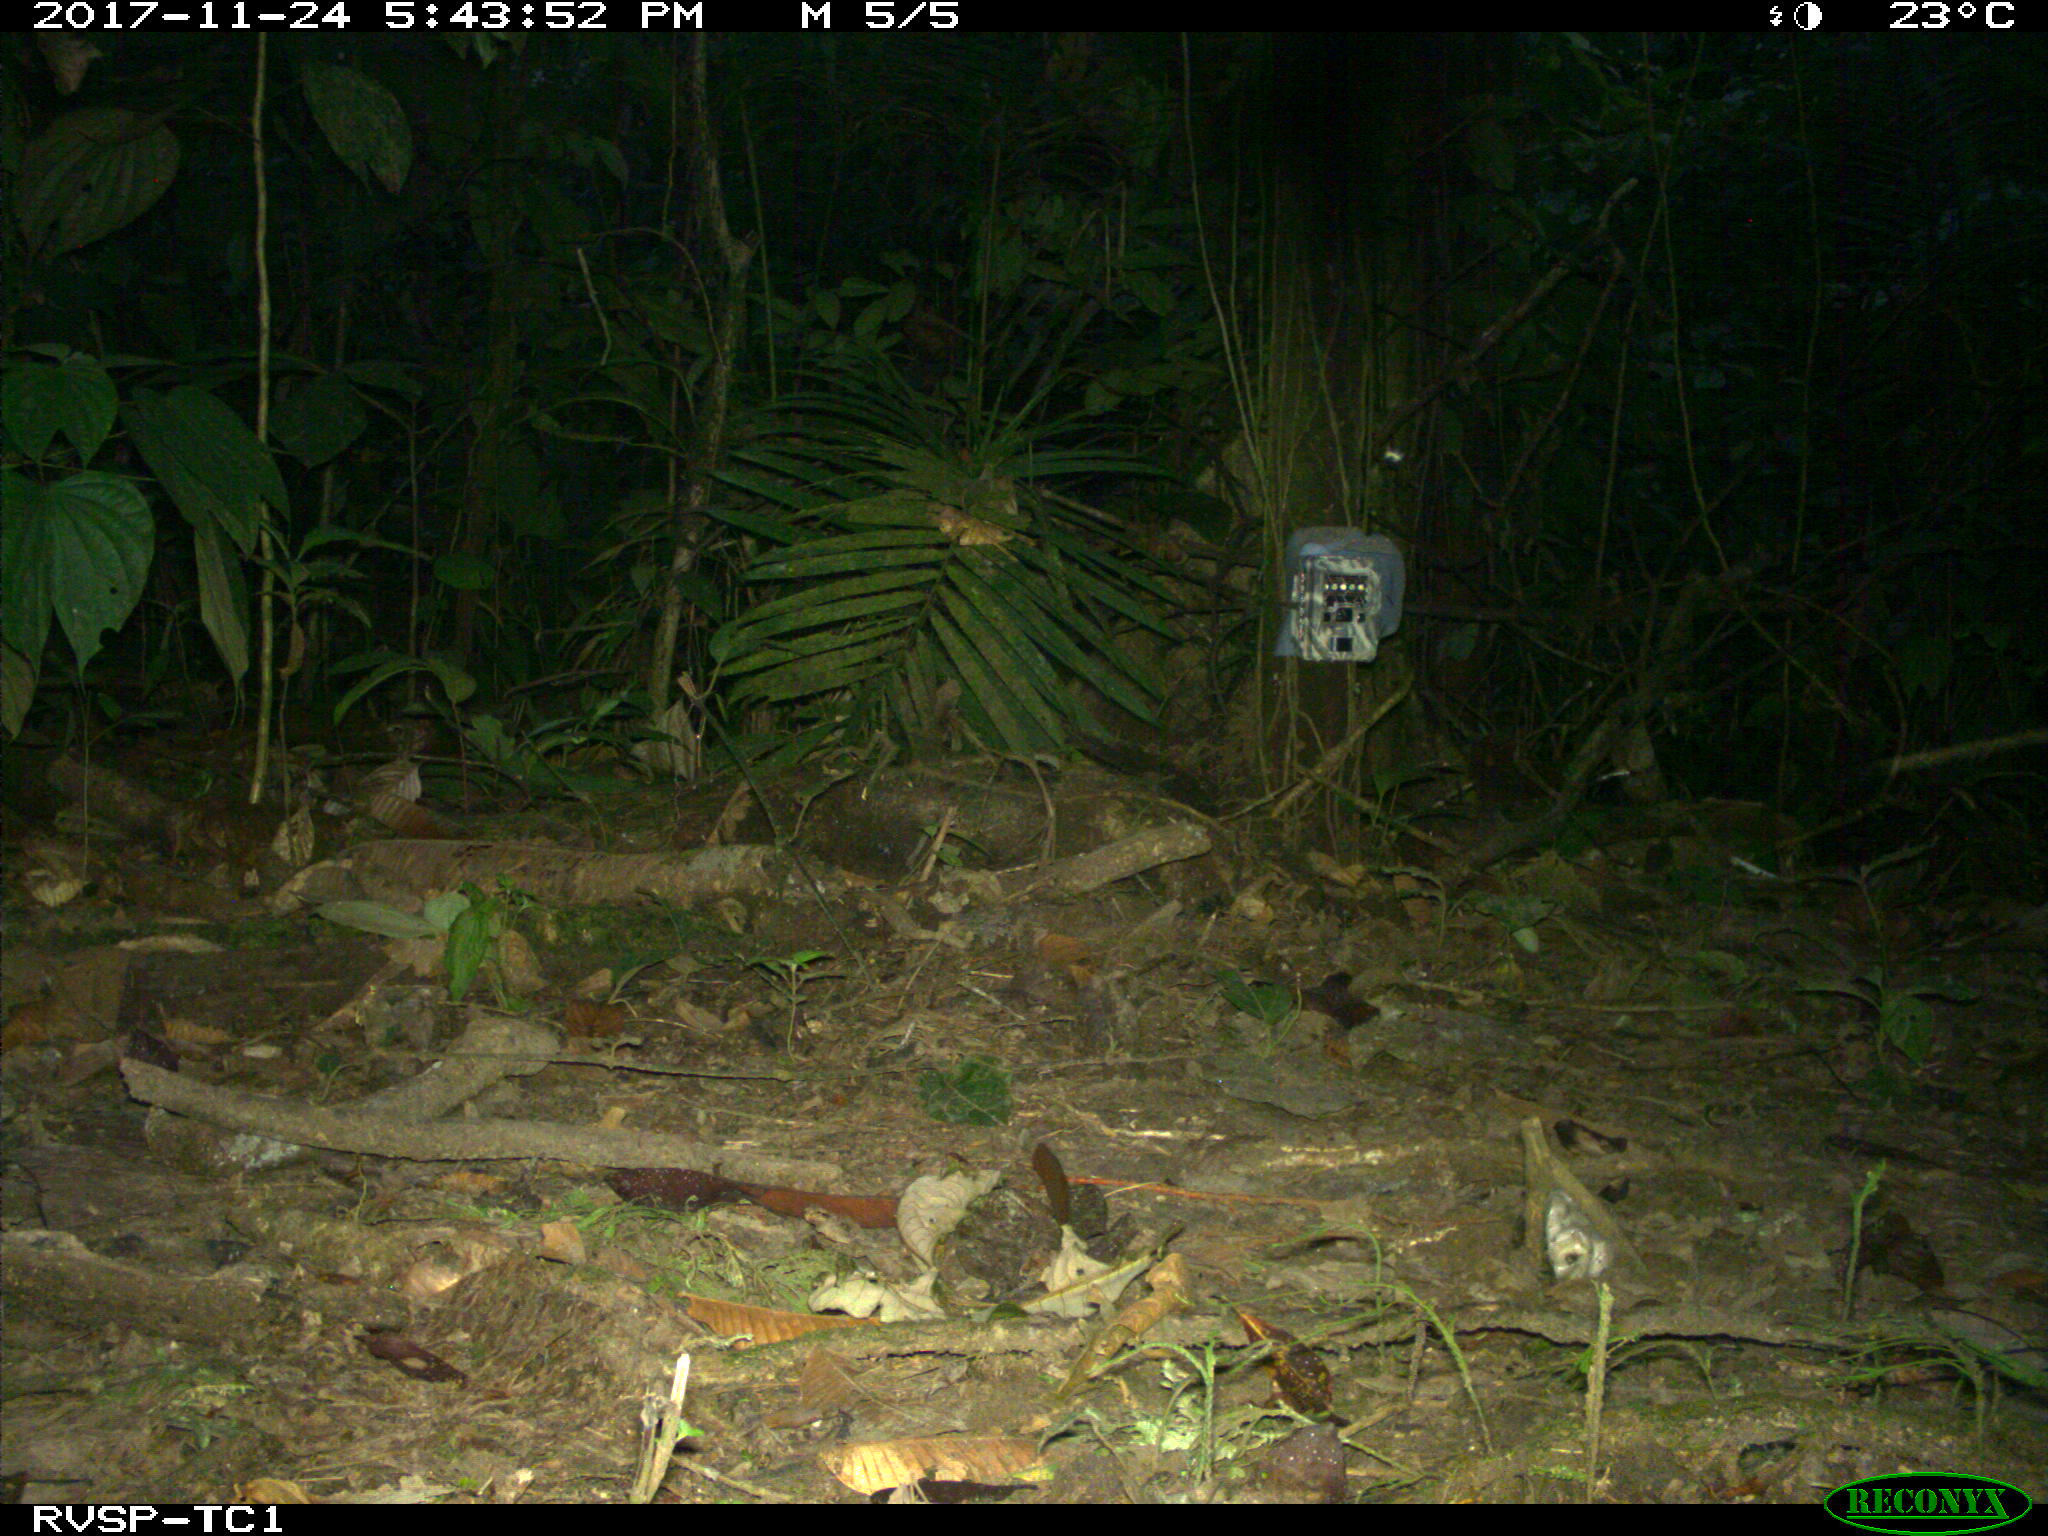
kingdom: Animalia
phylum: Chordata
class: Mammalia
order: Artiodactyla
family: Tayassuidae
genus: Tayassu
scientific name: Tayassu pecari
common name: White-lipped peccary
